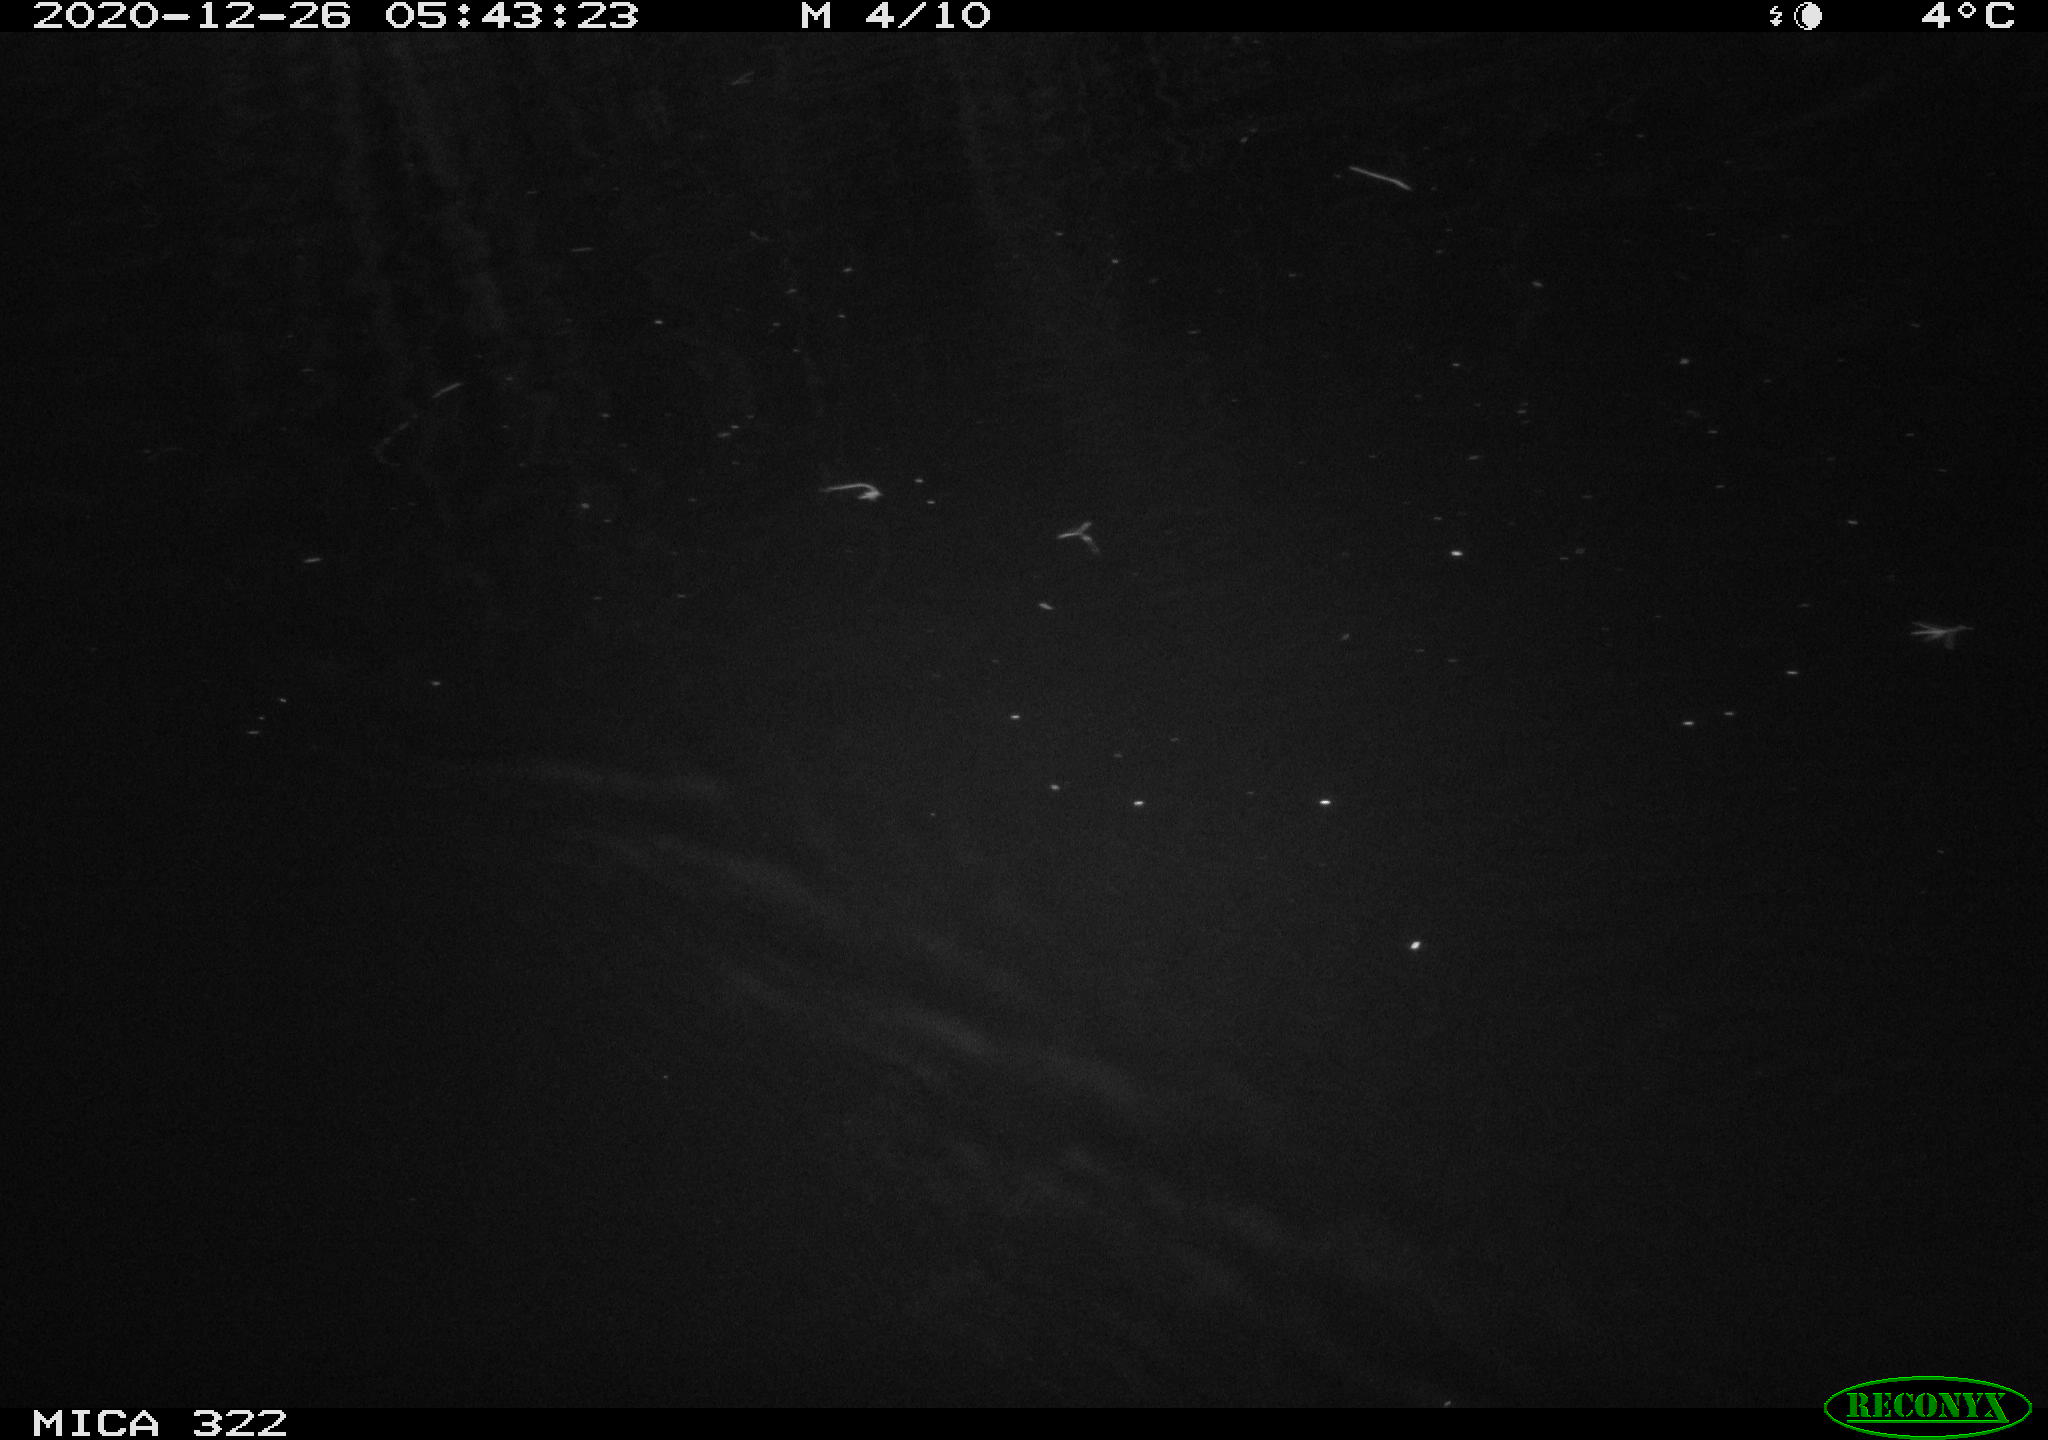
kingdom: Animalia
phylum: Chordata
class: Mammalia
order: Rodentia
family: Cricetidae
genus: Ondatra
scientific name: Ondatra zibethicus
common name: Muskrat
